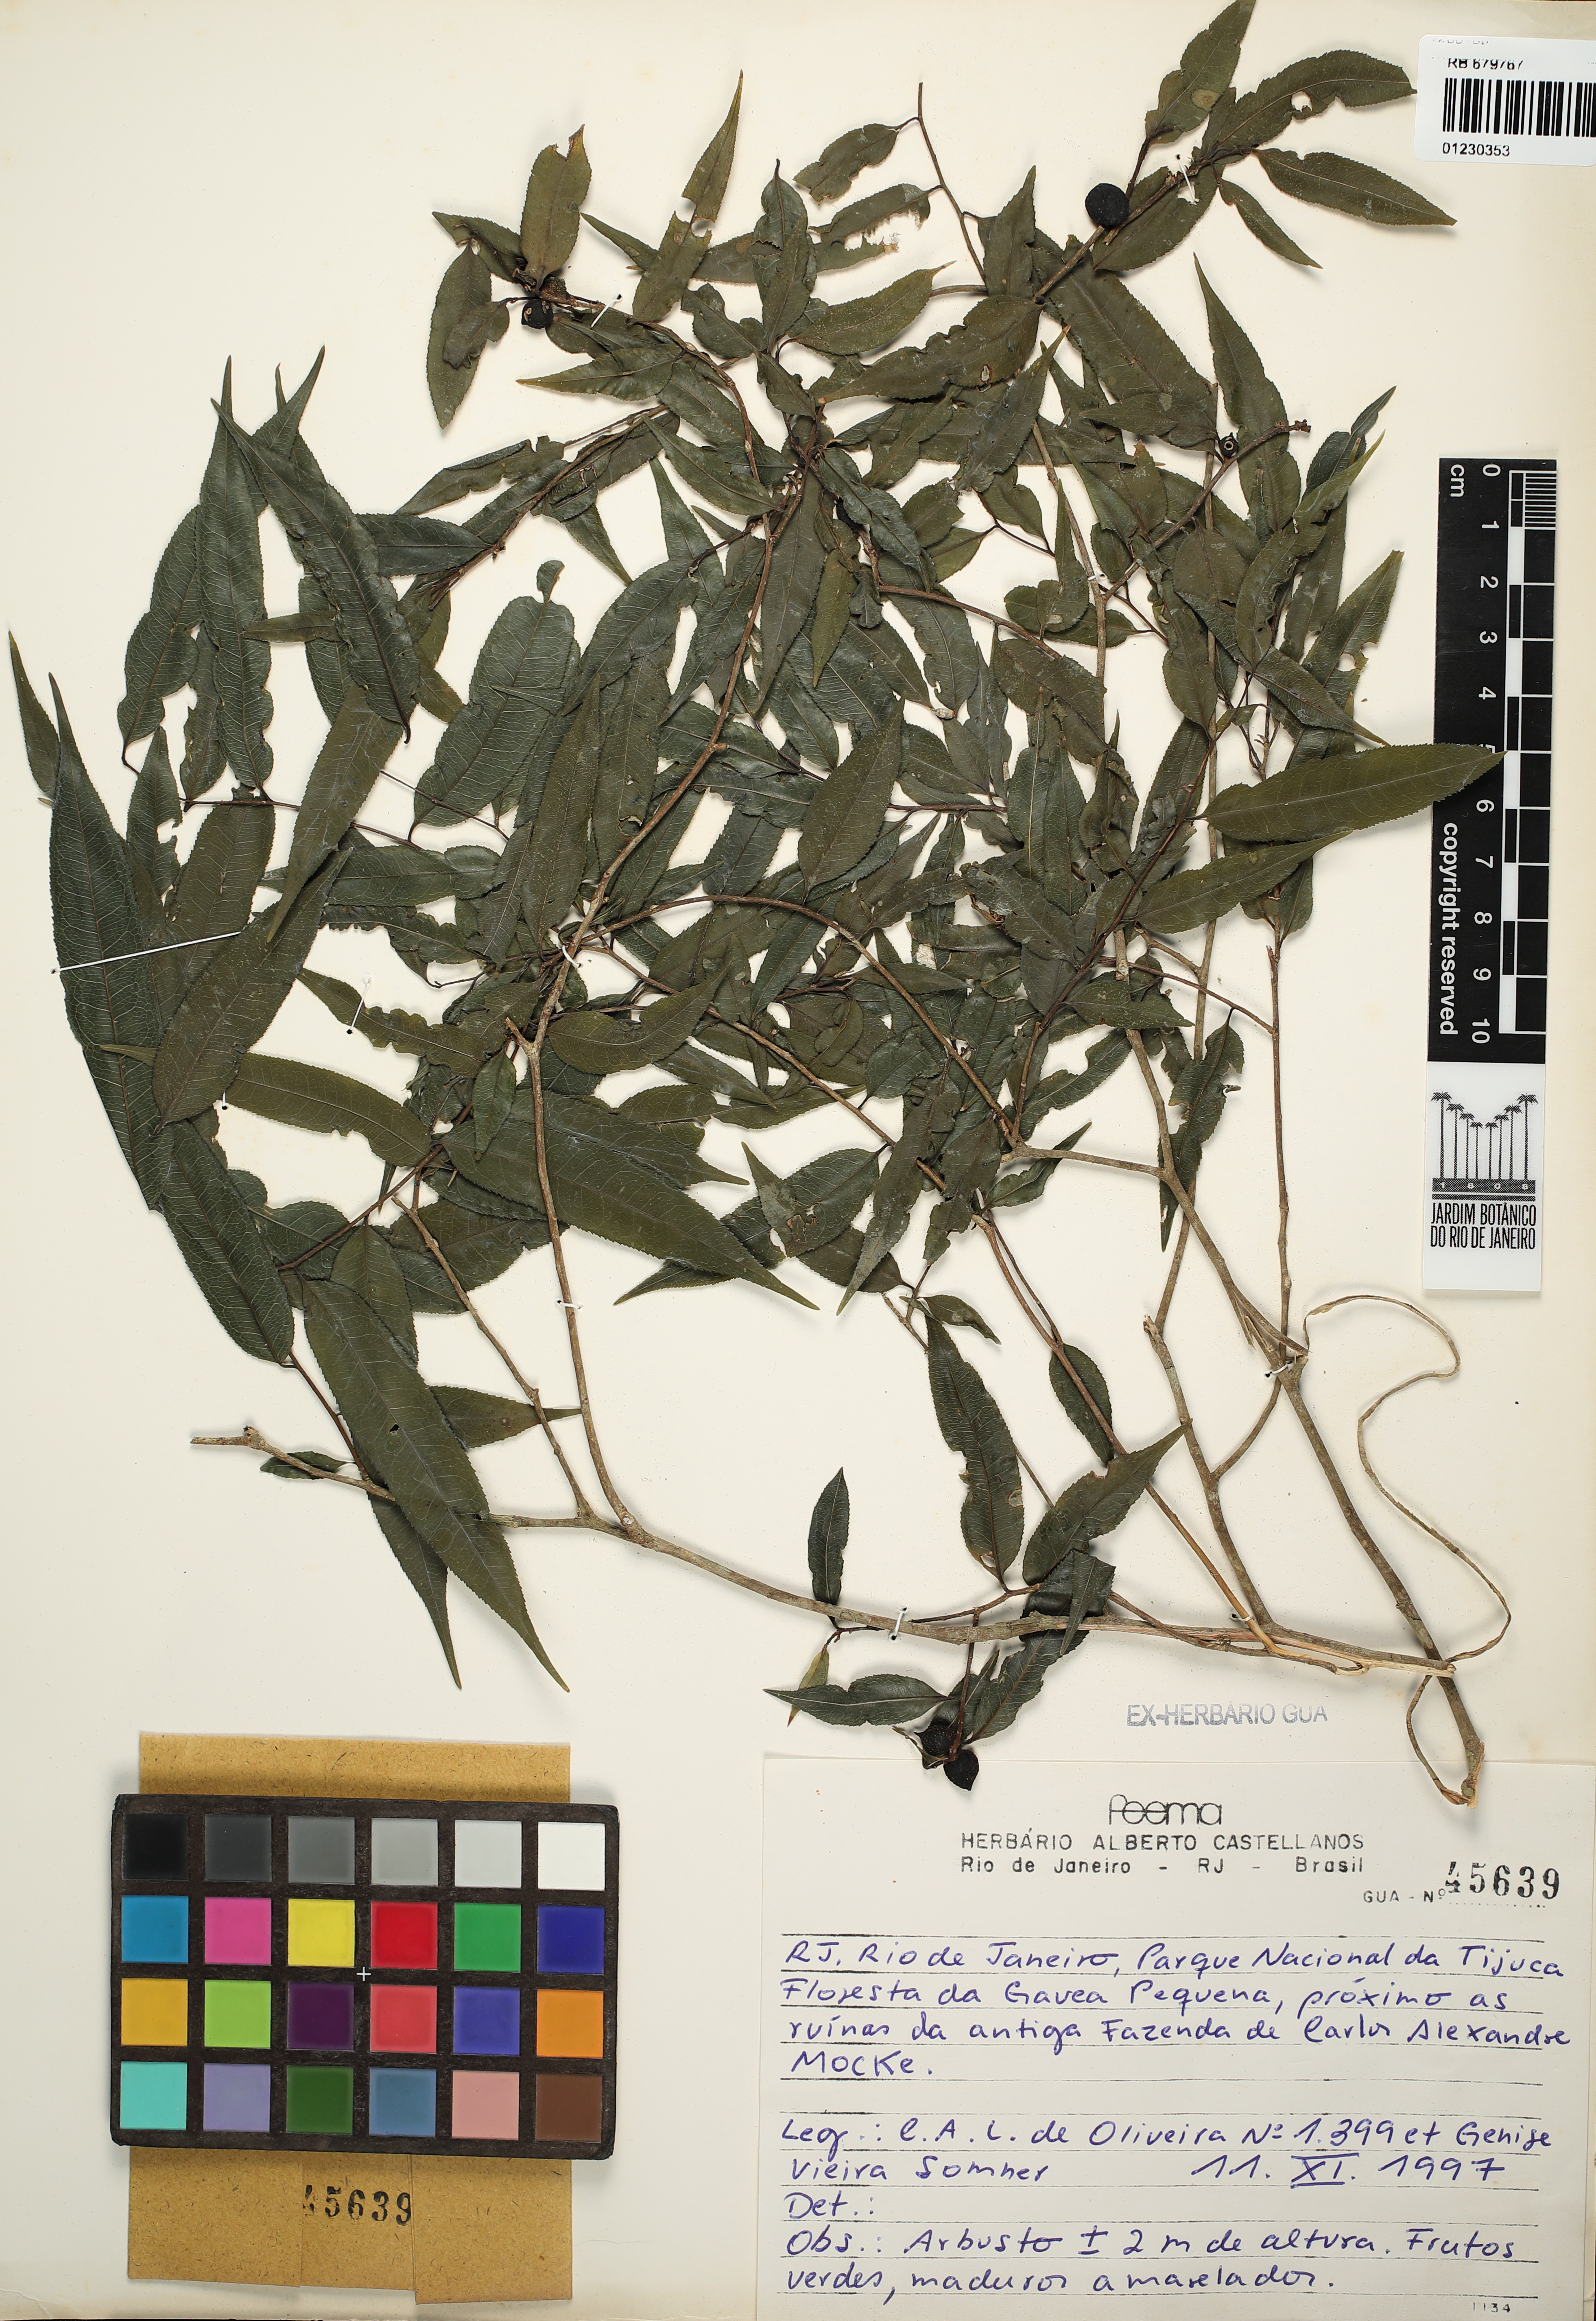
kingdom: Plantae
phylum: Tracheophyta
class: Magnoliopsida
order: Malpighiales
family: Salicaceae
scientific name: Salicaceae
